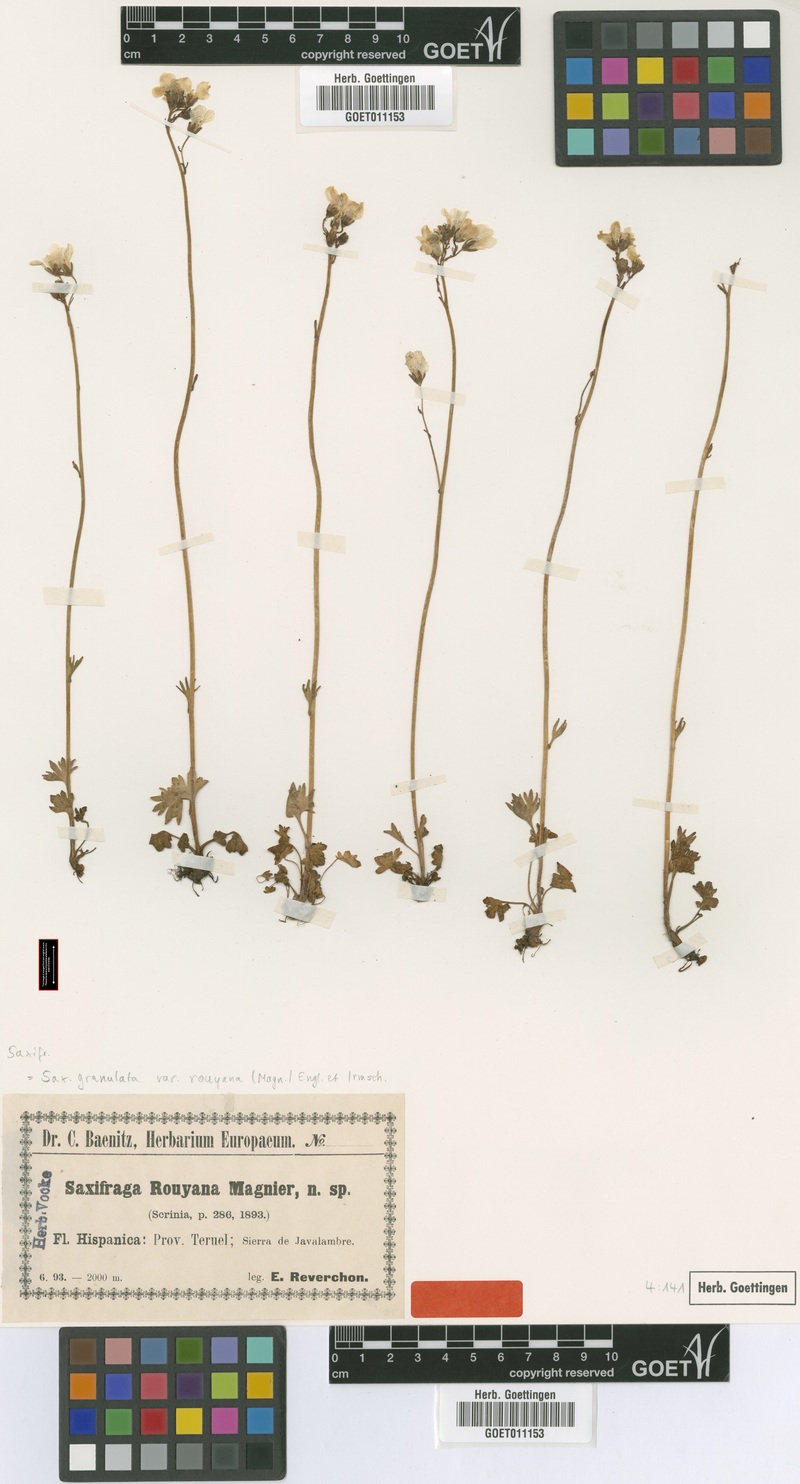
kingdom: Plantae
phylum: Tracheophyta
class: Magnoliopsida
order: Saxifragales
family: Saxifragaceae
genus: Saxifraga
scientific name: Saxifraga granulata
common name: Meadow saxifrage
